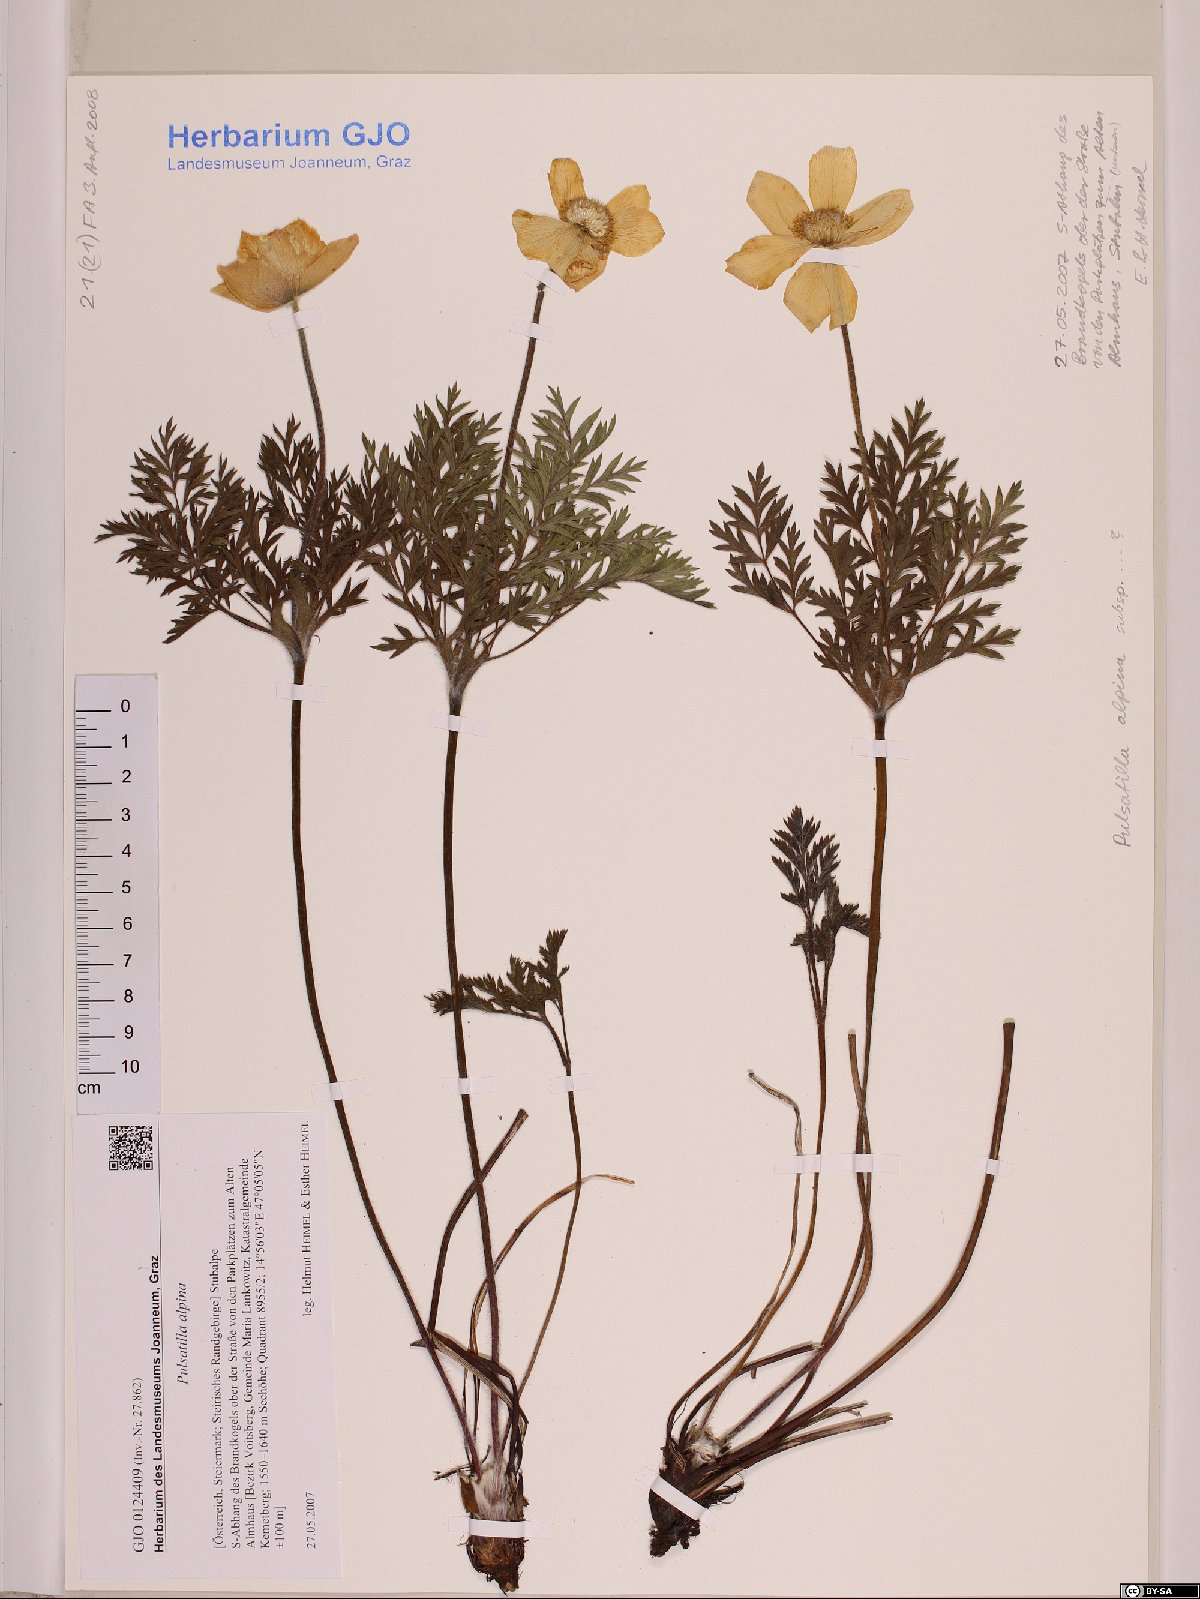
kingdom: Plantae
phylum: Tracheophyta
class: Magnoliopsida
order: Ranunculales
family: Ranunculaceae
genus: Pulsatilla
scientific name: Pulsatilla alpina
